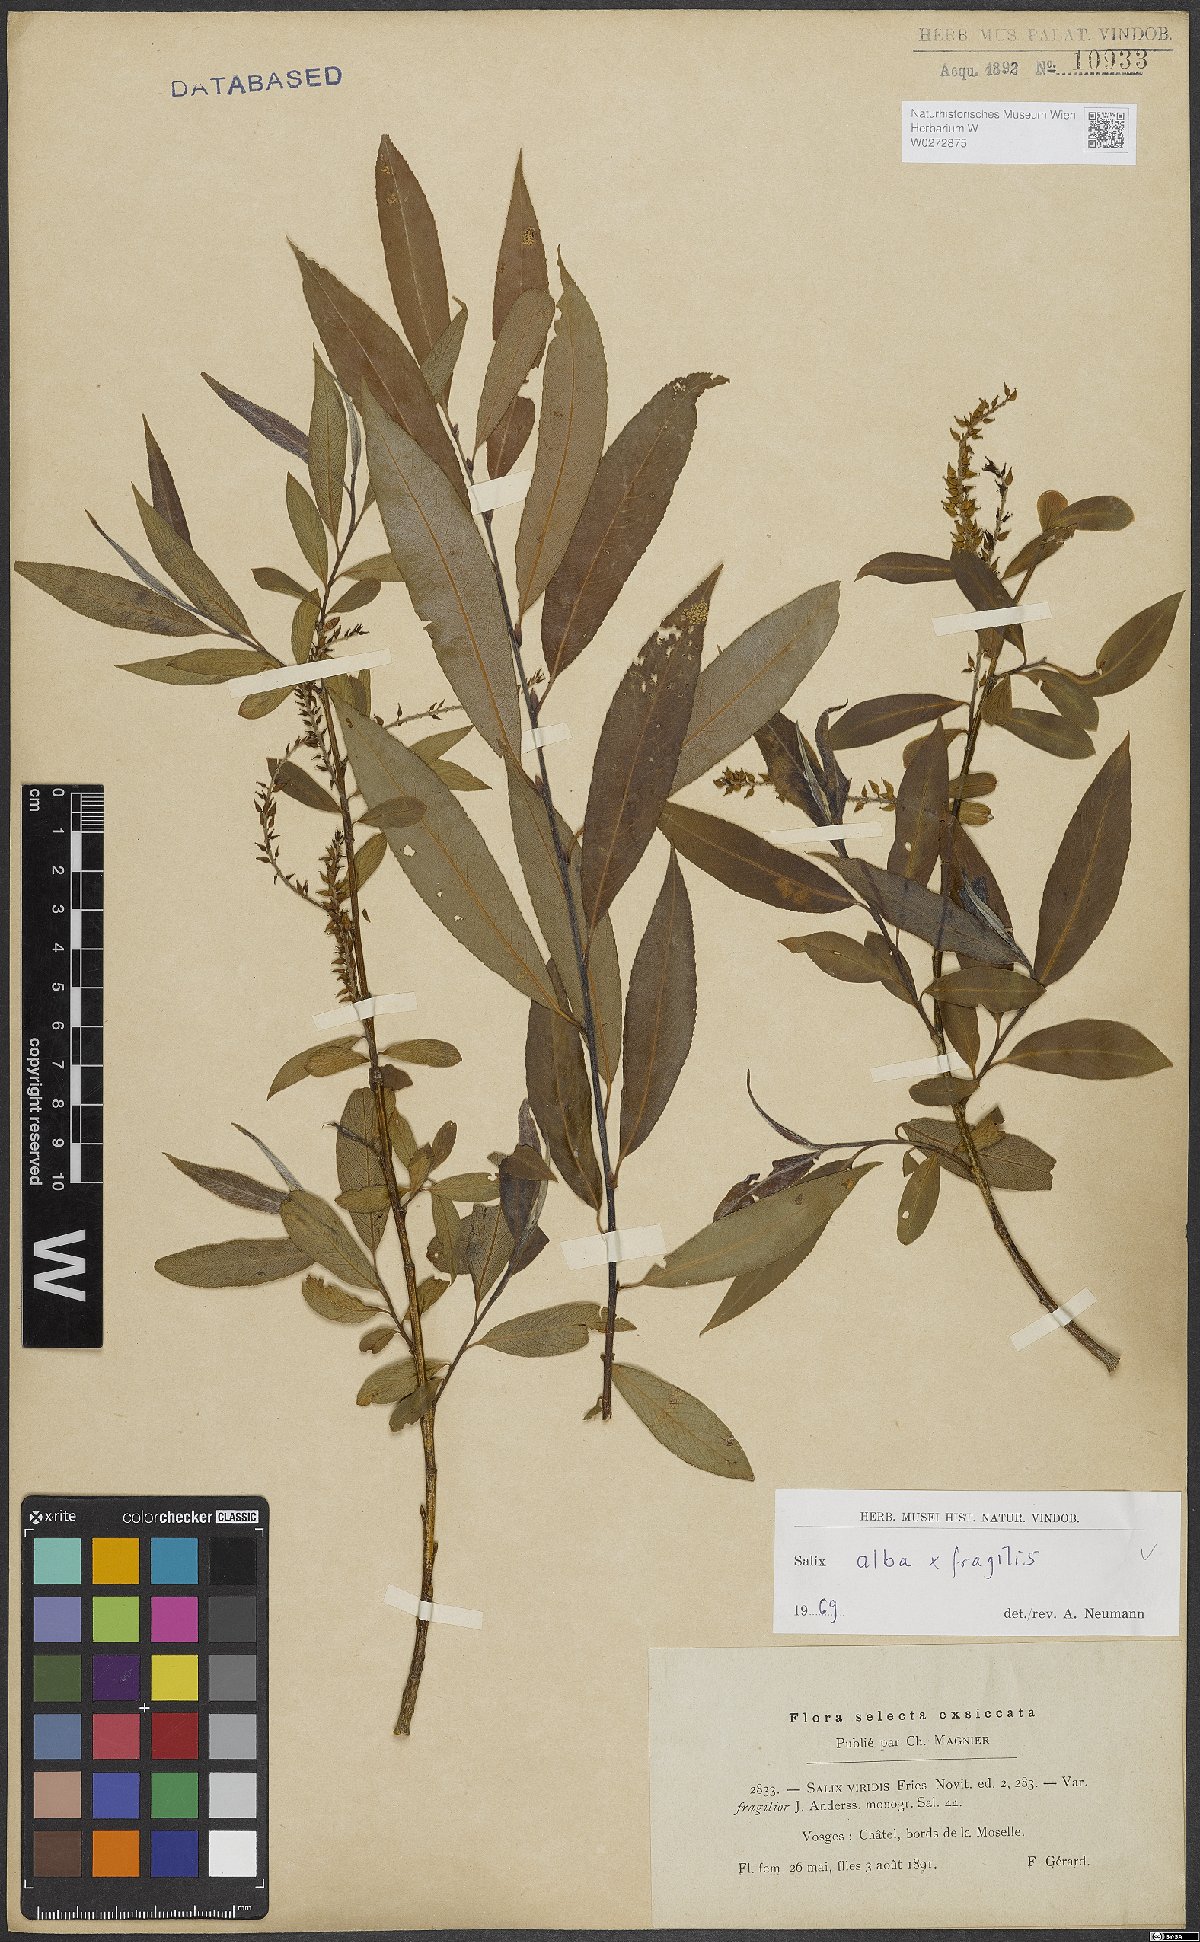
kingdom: Plantae
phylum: Tracheophyta
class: Magnoliopsida
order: Malpighiales
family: Salicaceae
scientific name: Salicaceae
